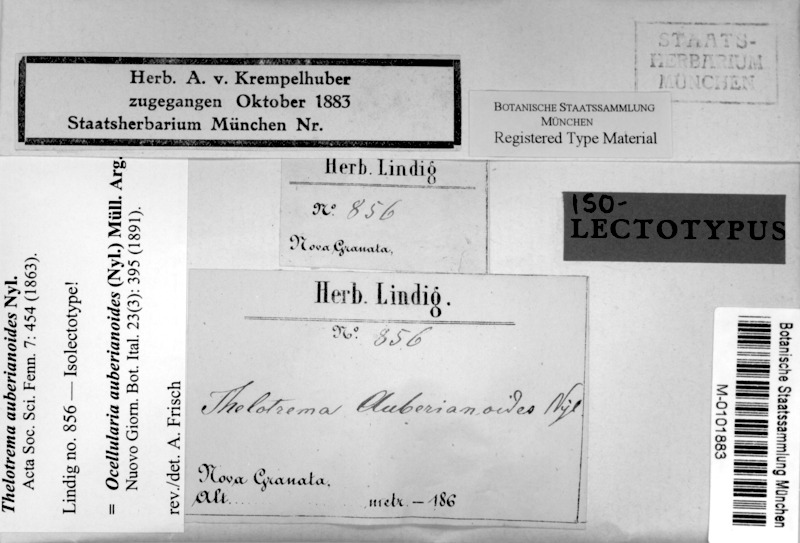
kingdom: Fungi
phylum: Ascomycota
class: Lecanoromycetes
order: Ostropales
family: Graphidaceae
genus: Ocellularia
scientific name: Ocellularia auberianoides
